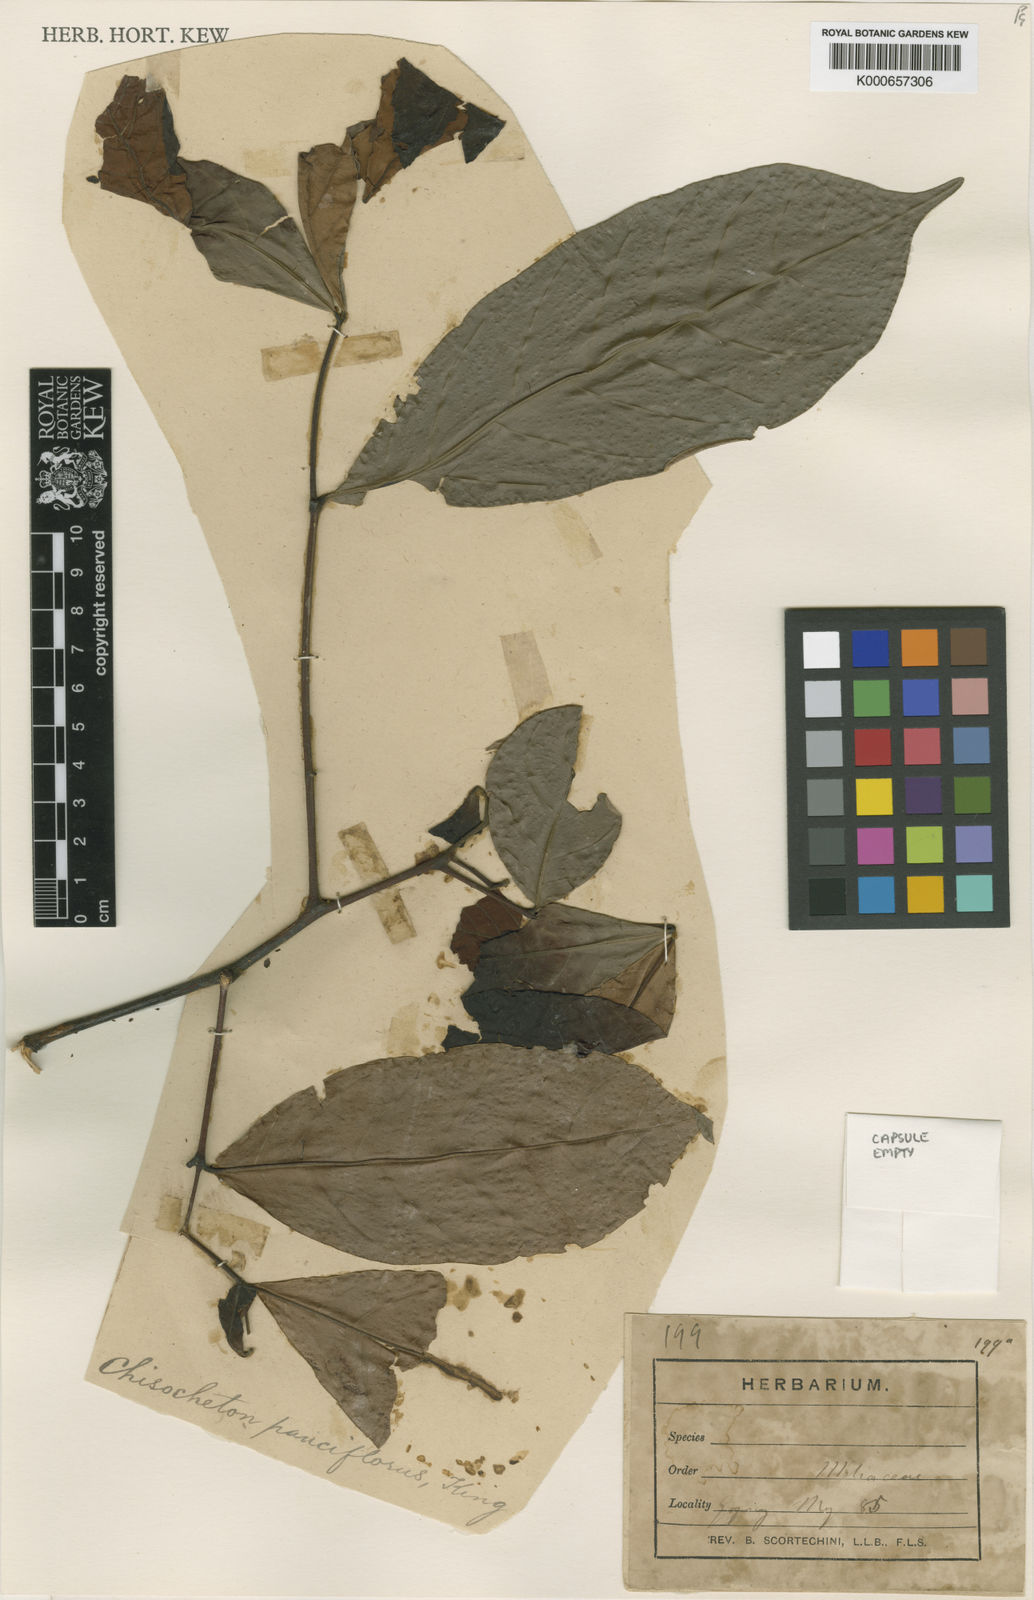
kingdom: Plantae
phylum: Tracheophyta
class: Magnoliopsida
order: Sapindales
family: Meliaceae
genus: Chisocheton
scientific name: Chisocheton pauciflorus
